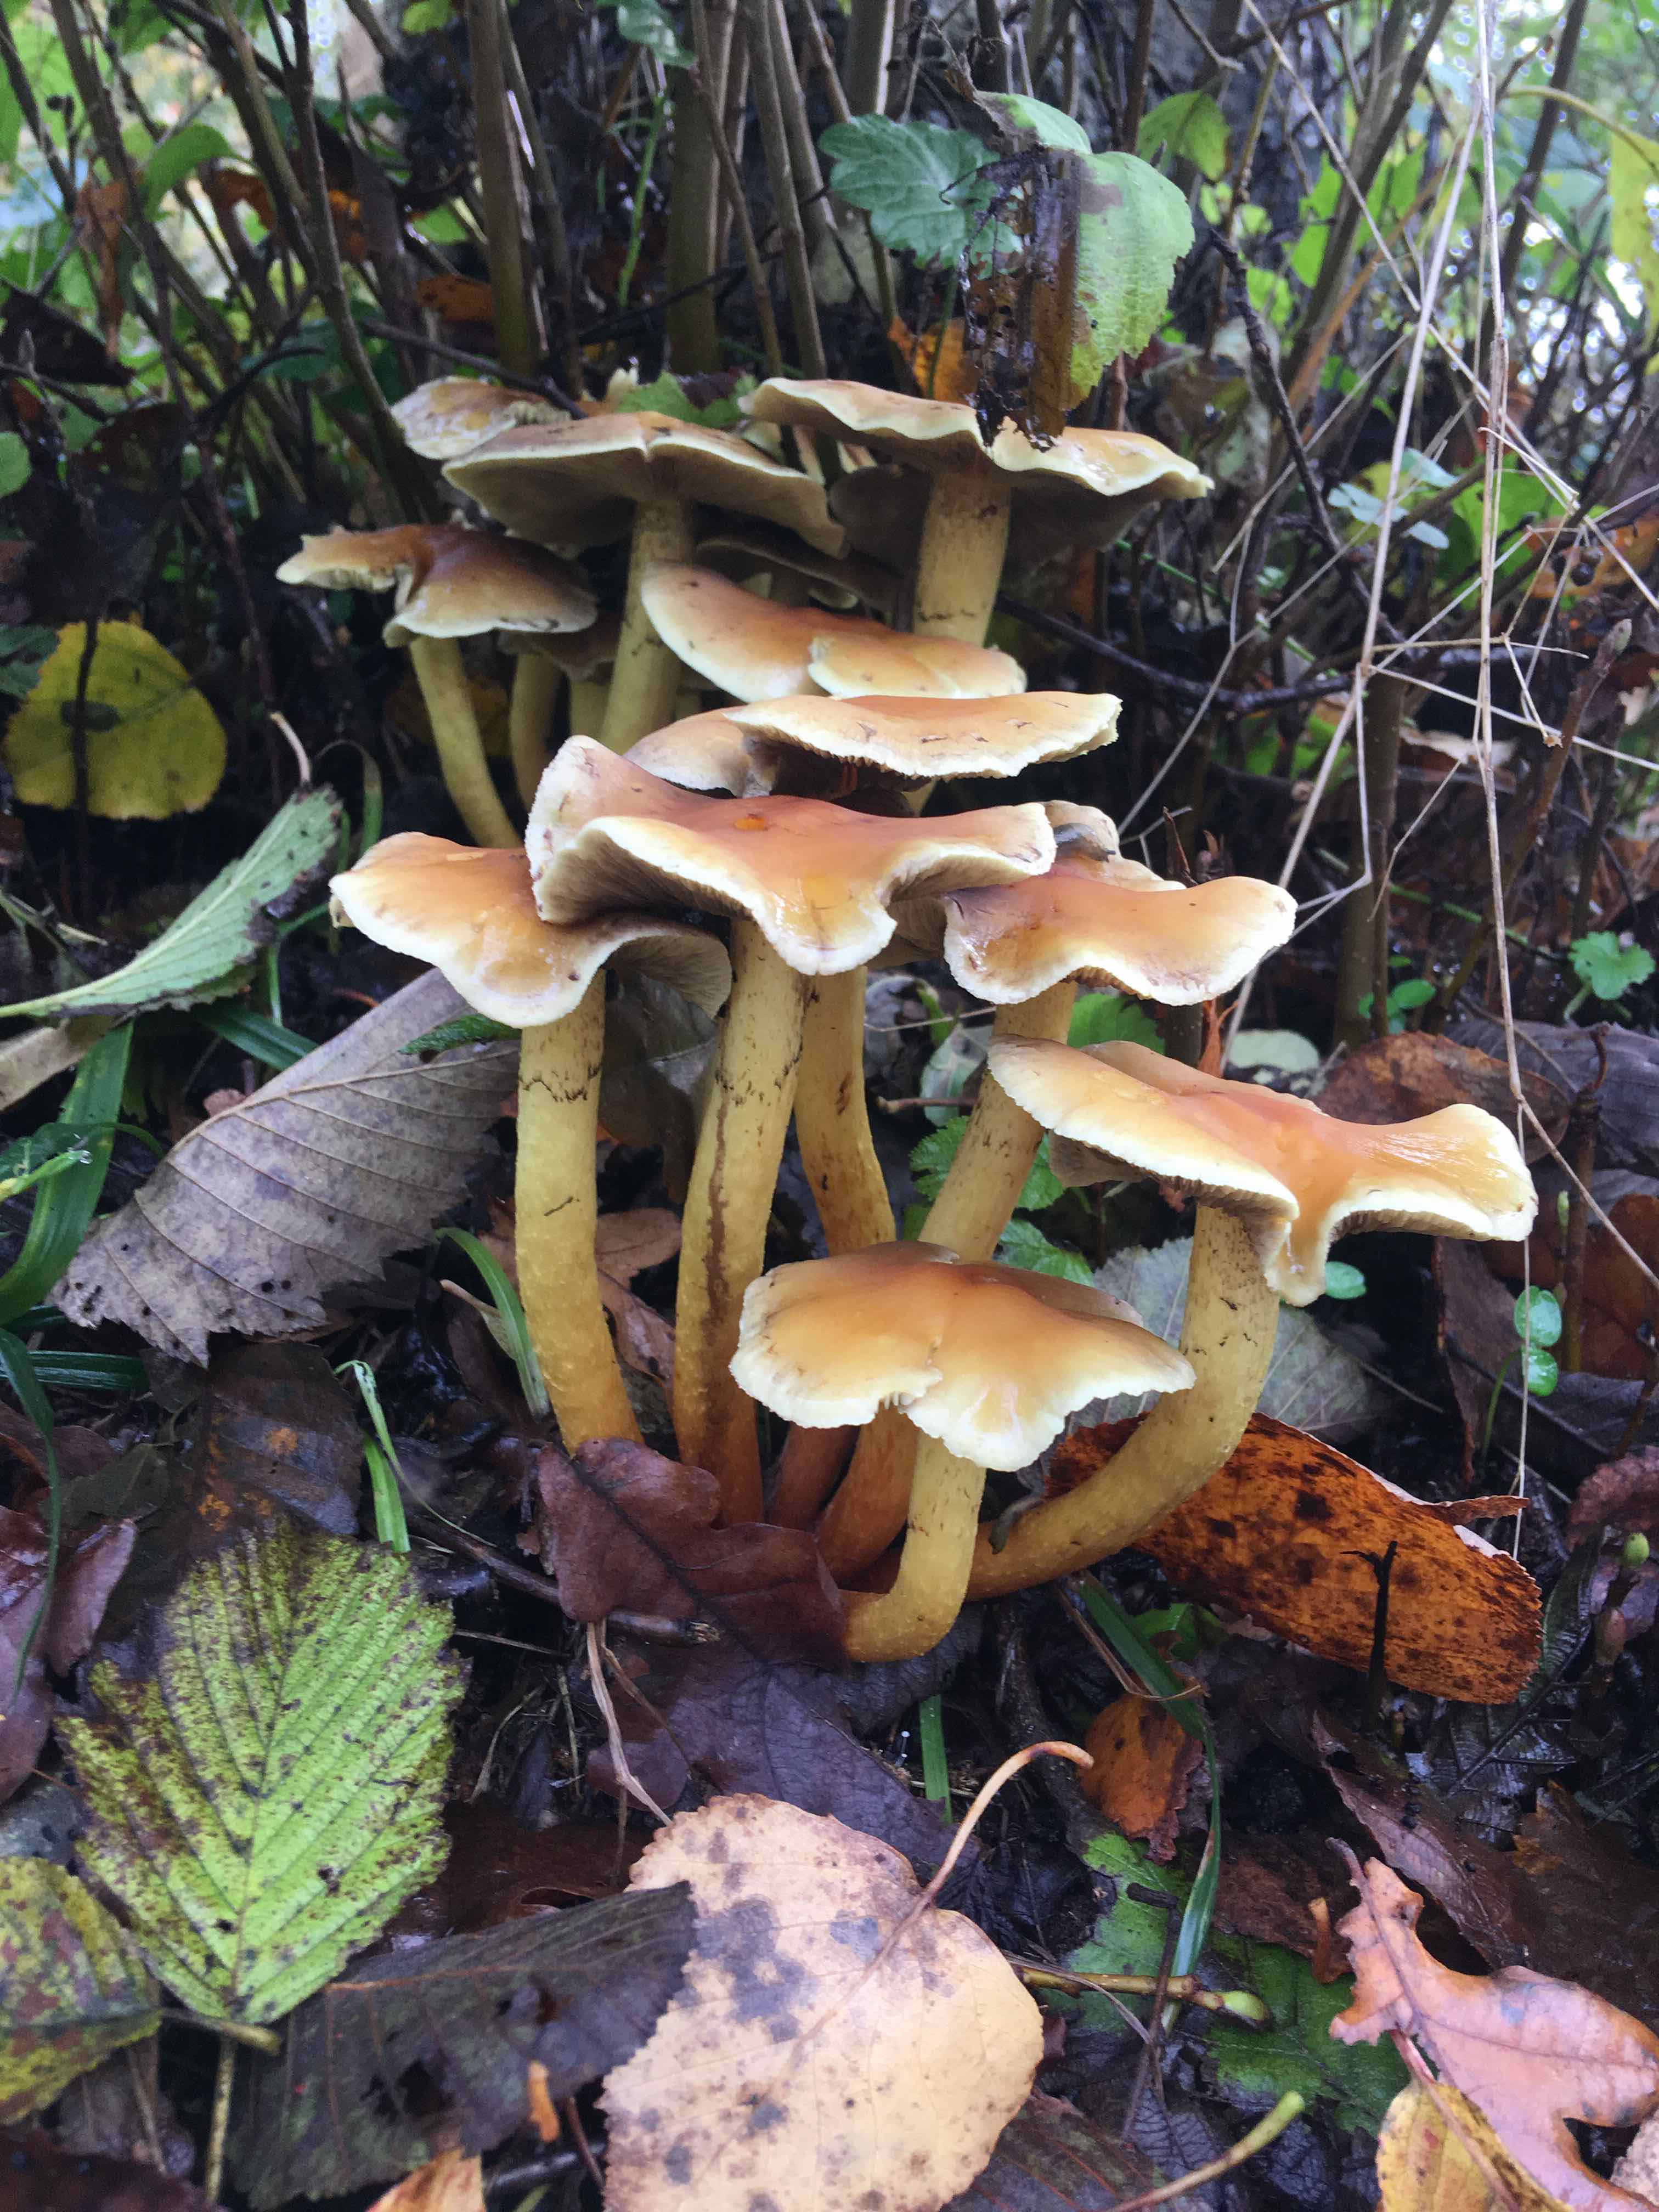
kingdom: Fungi
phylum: Basidiomycota
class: Agaricomycetes
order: Agaricales
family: Strophariaceae
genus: Hypholoma
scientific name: Hypholoma fasciculare
